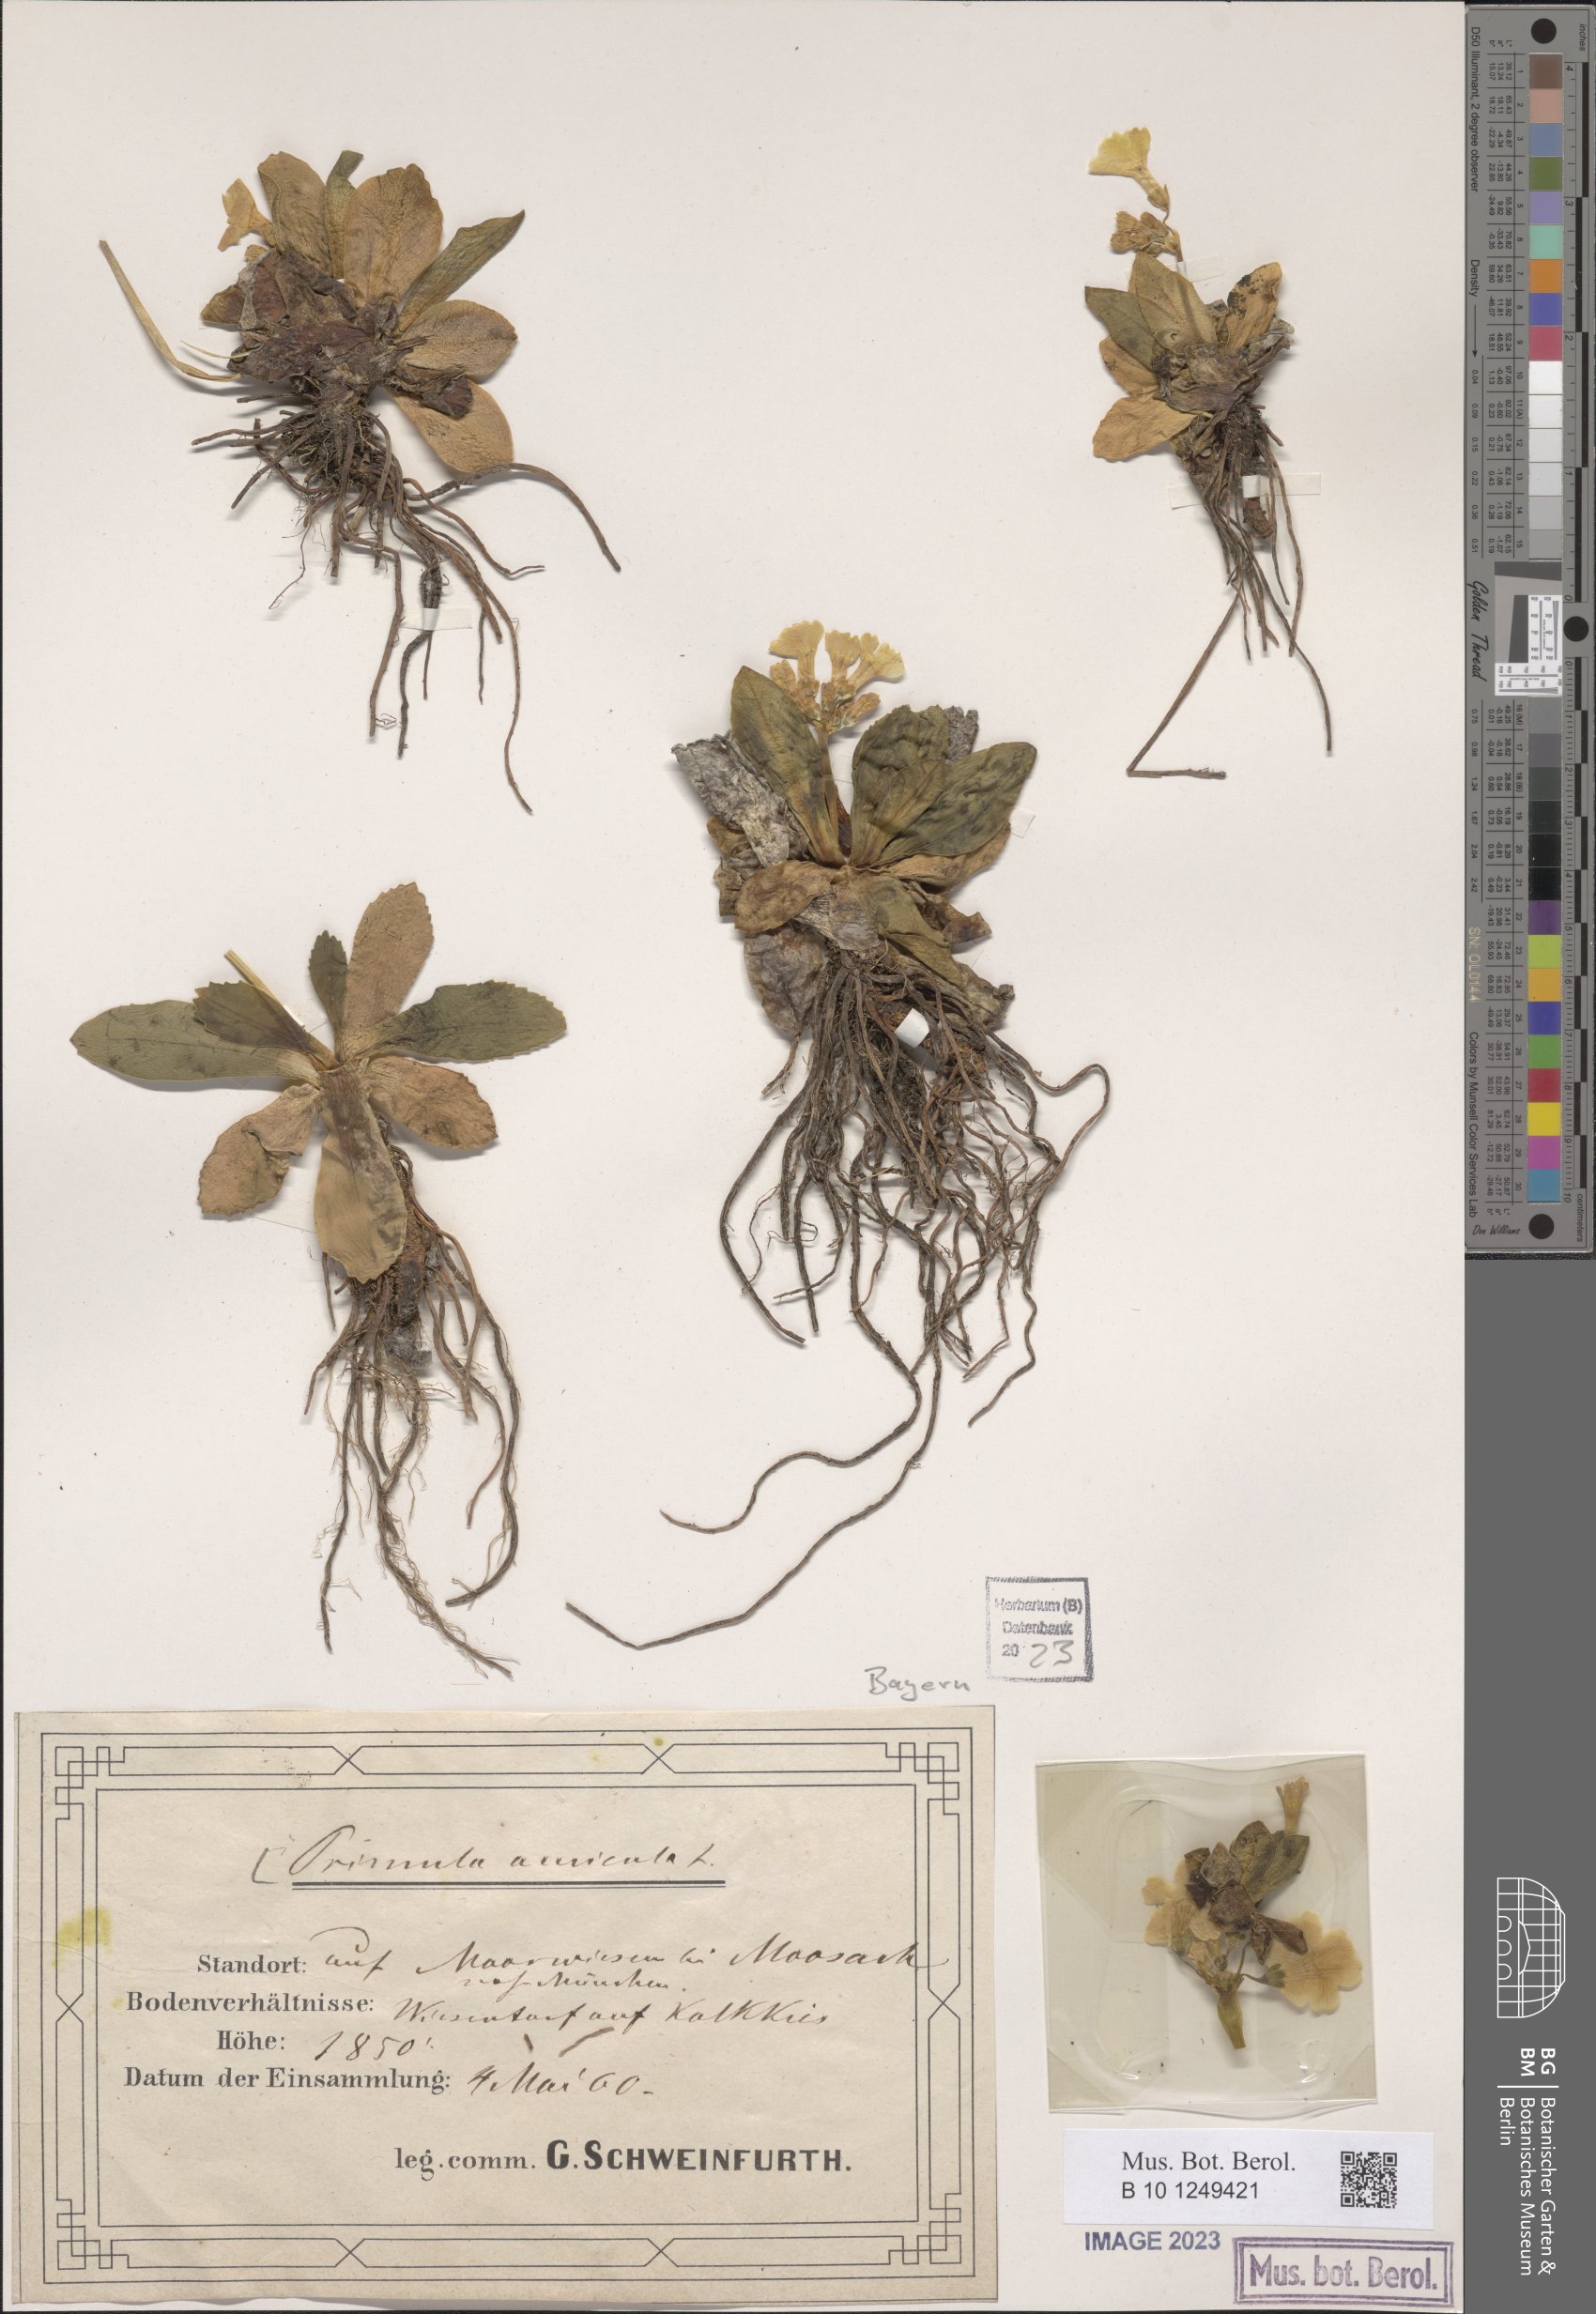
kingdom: Plantae
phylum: Tracheophyta
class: Magnoliopsida
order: Ericales
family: Primulaceae
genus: Primula
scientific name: Primula auricula
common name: Auricula
